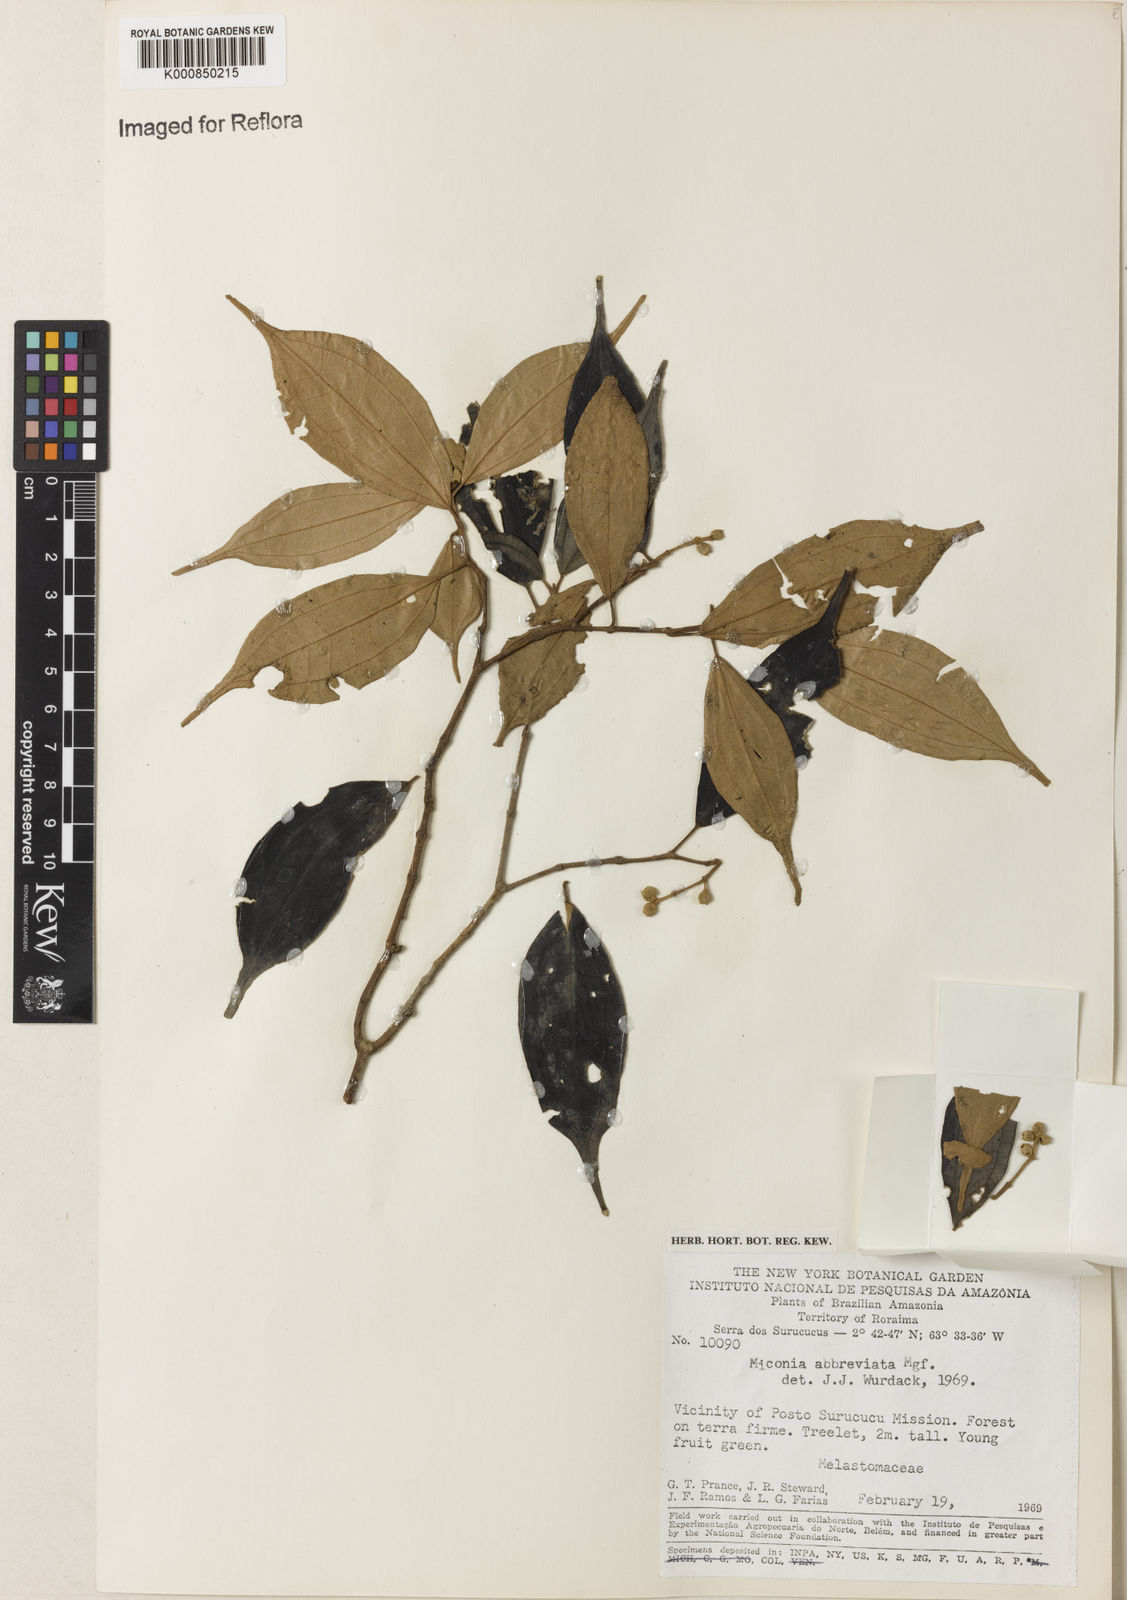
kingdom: Plantae
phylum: Tracheophyta
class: Magnoliopsida
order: Myrtales
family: Melastomataceae
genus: Miconia
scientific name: Miconia abbreviata
